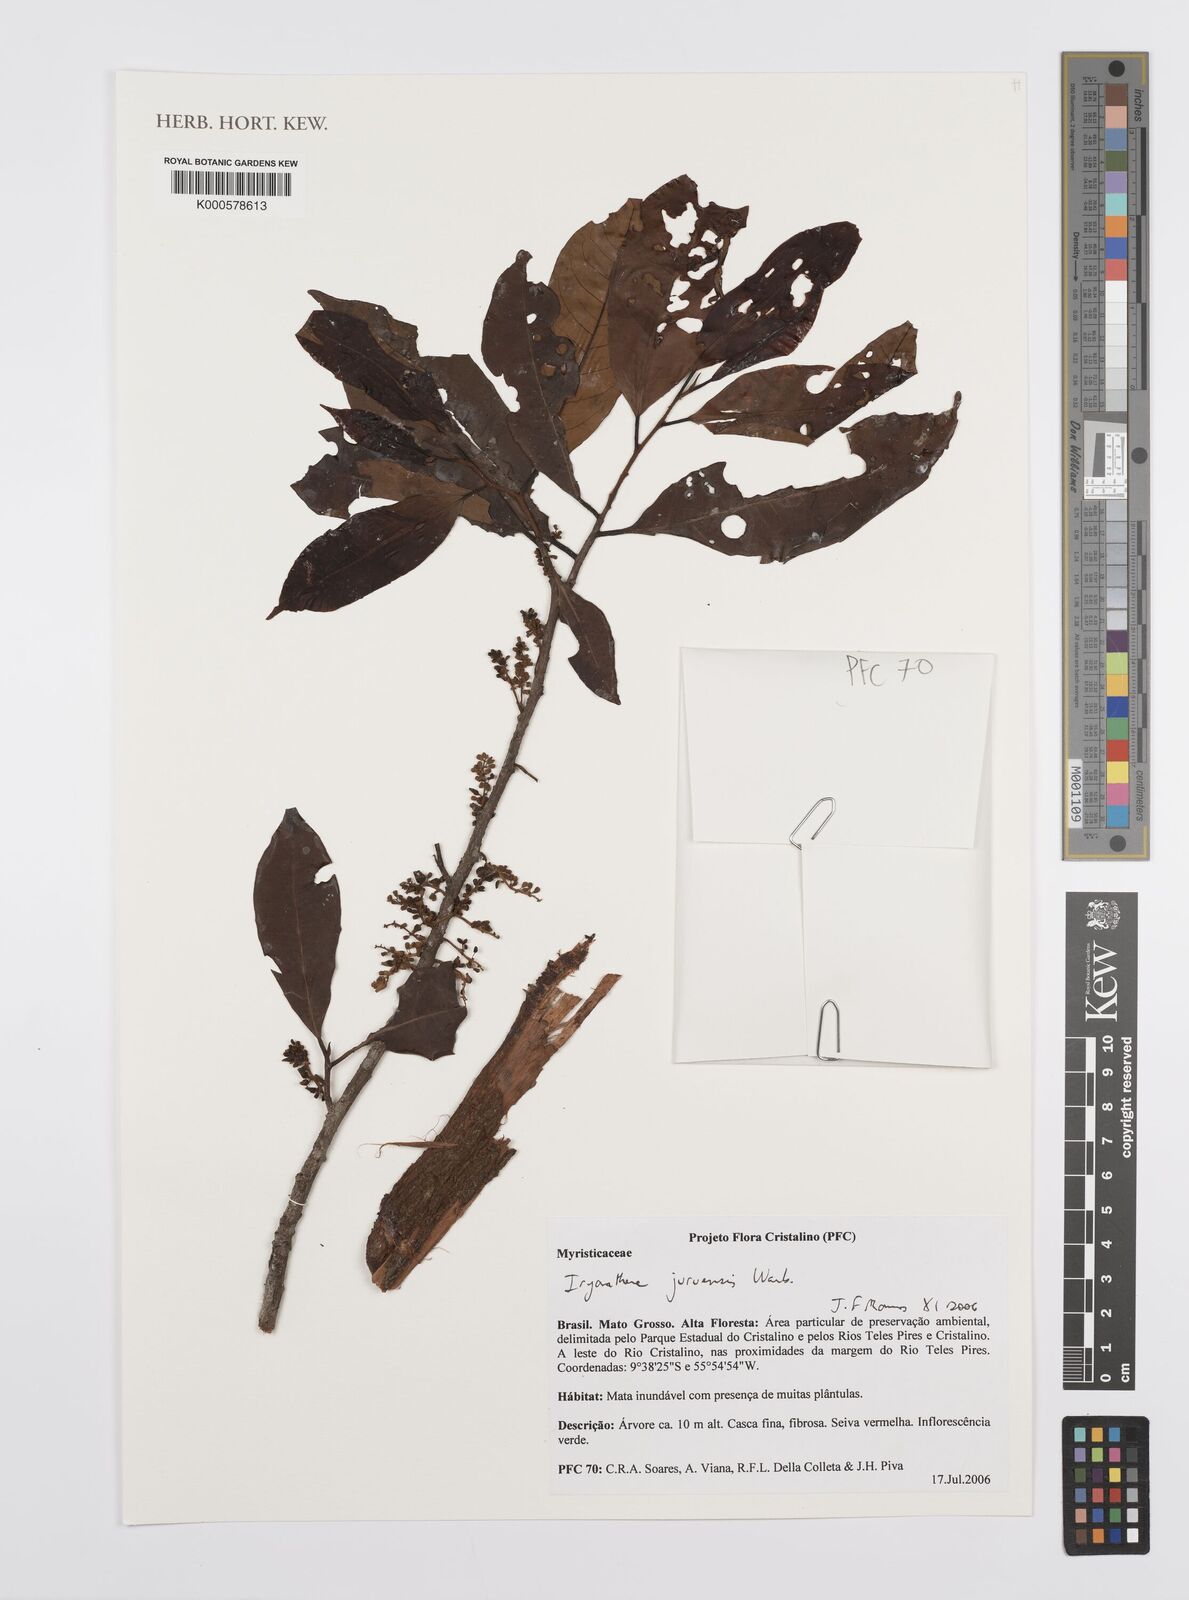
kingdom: Plantae
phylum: Tracheophyta
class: Magnoliopsida
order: Magnoliales
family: Myristicaceae
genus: Iryanthera
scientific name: Iryanthera juruensis
